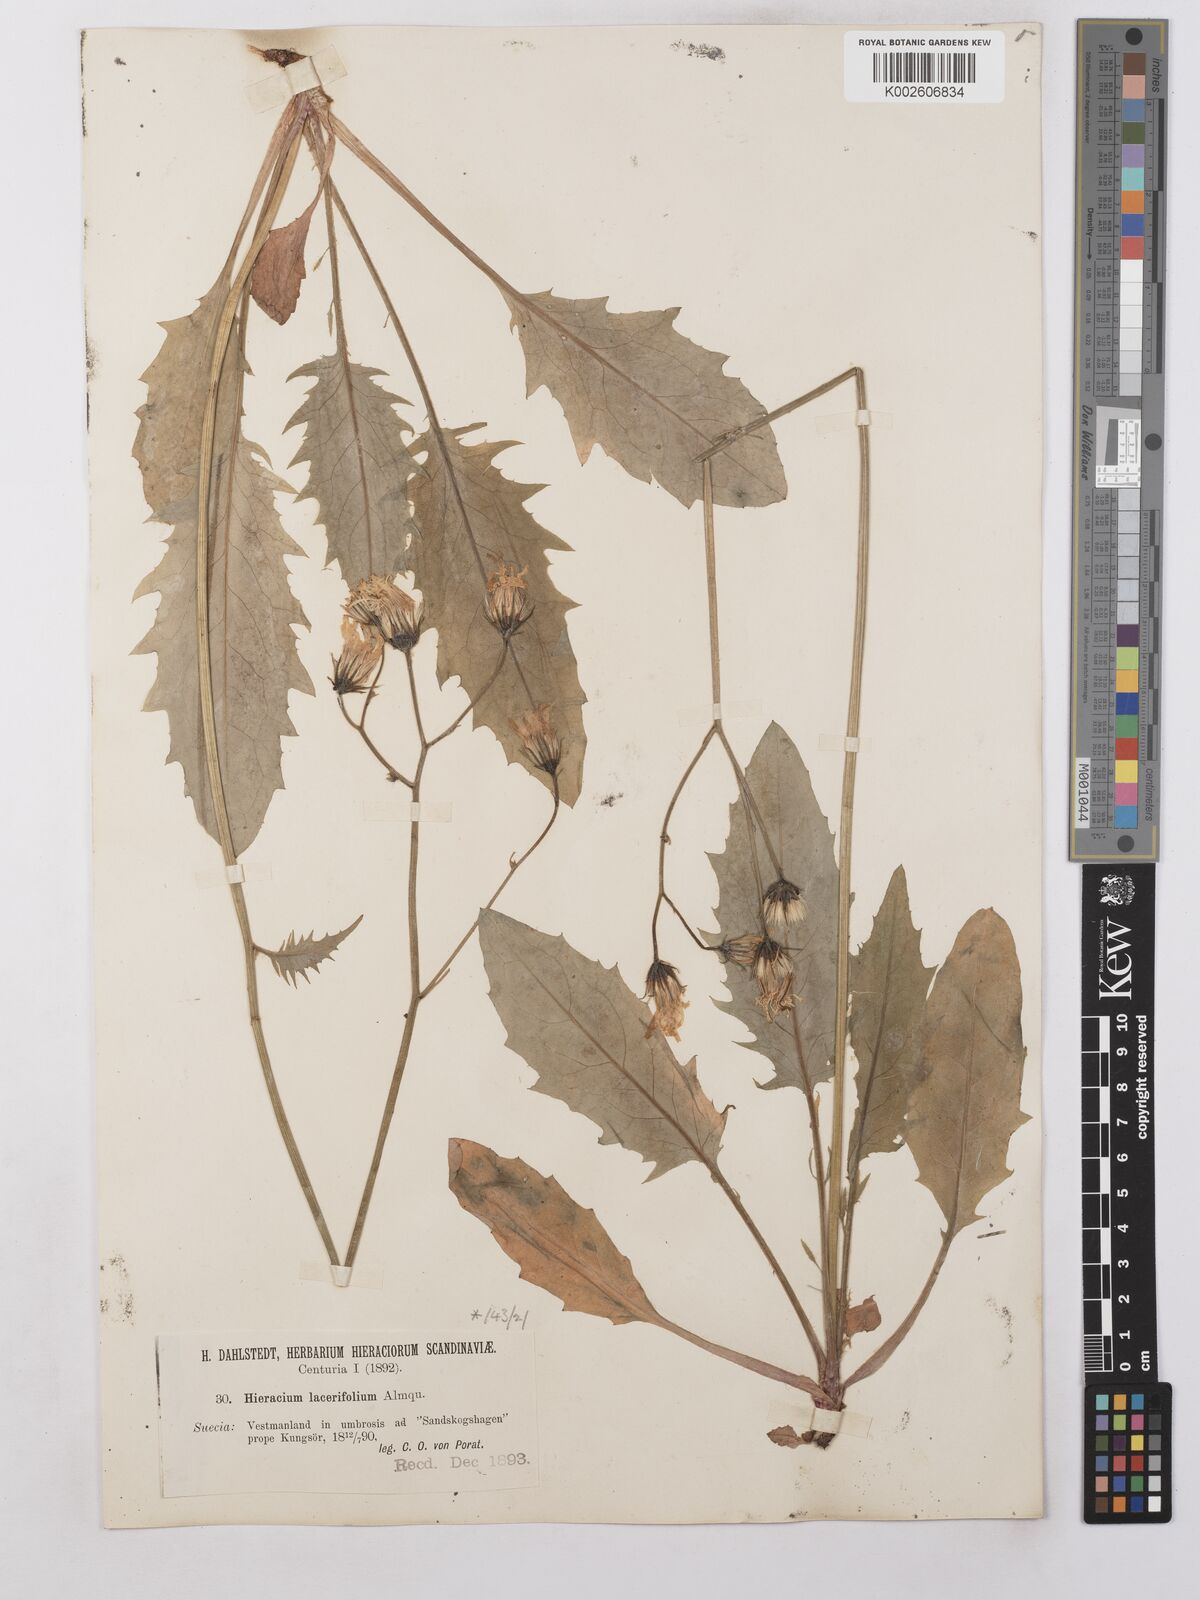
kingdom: Plantae
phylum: Tracheophyta
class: Magnoliopsida
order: Asterales
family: Asteraceae
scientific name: Asteraceae
